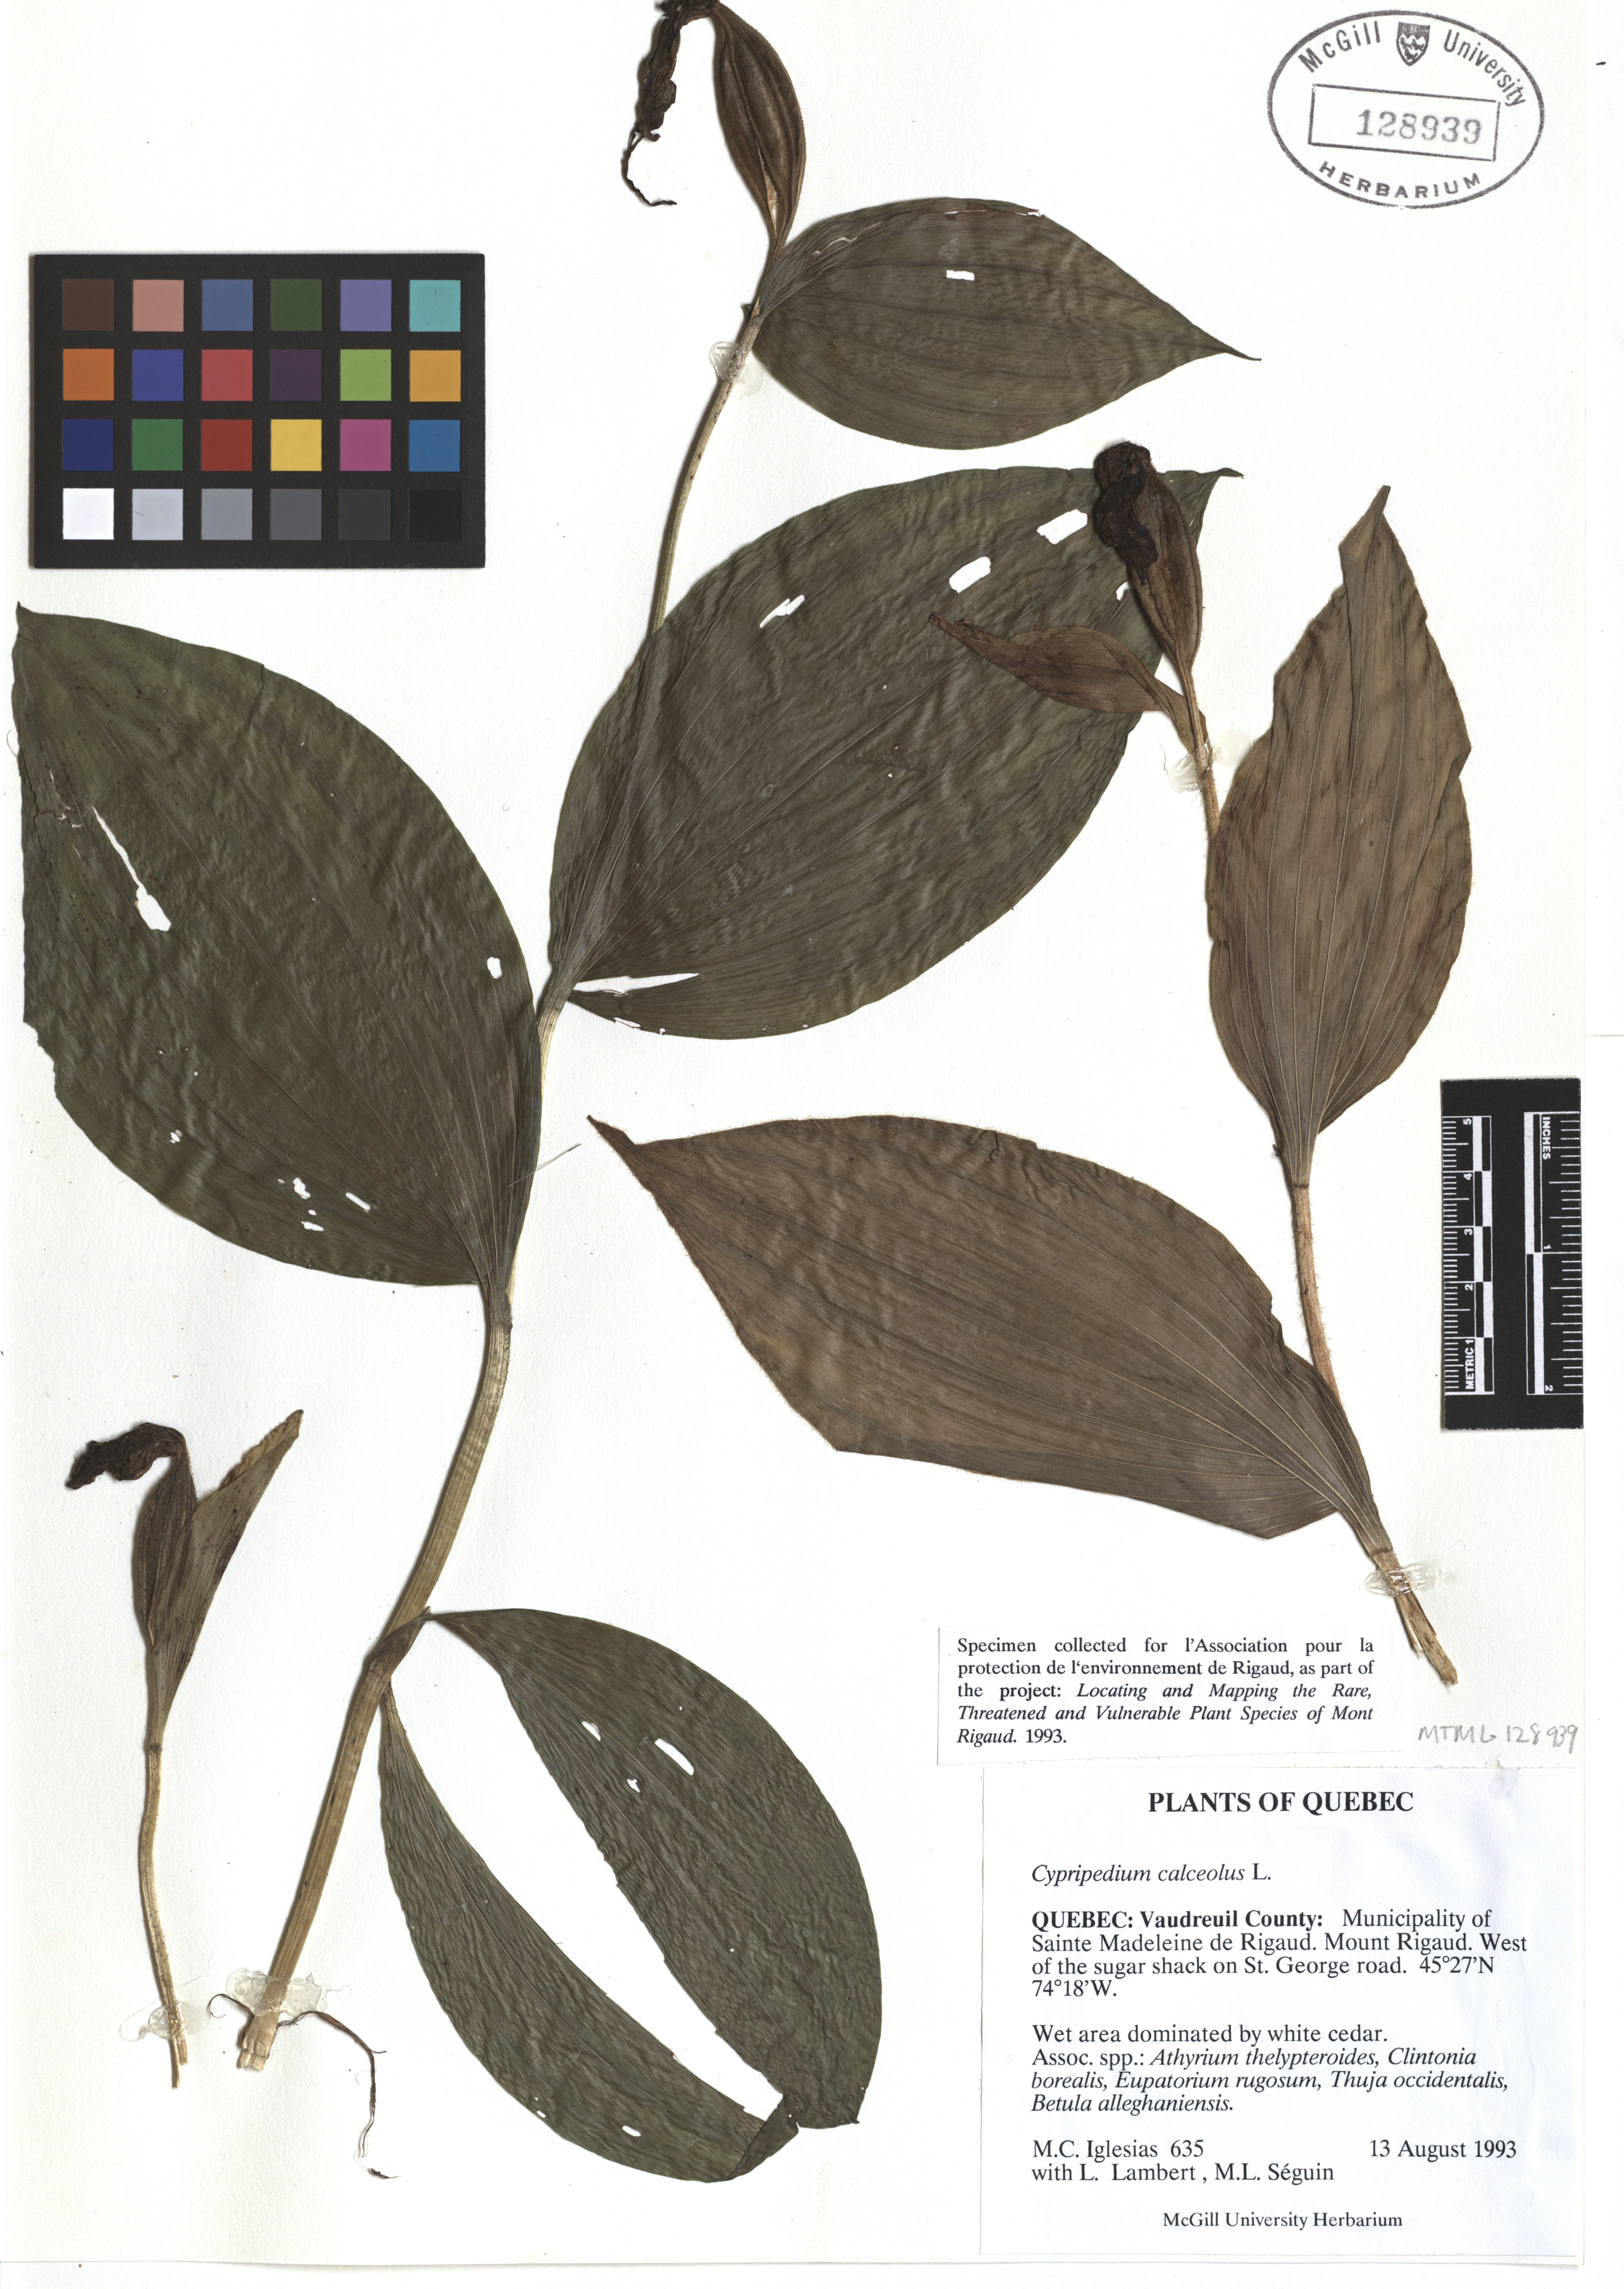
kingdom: Plantae
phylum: Tracheophyta
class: Liliopsida
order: Asparagales
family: Orchidaceae
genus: Cypripedium
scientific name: Cypripedium calceolus
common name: Lady's-slipper
